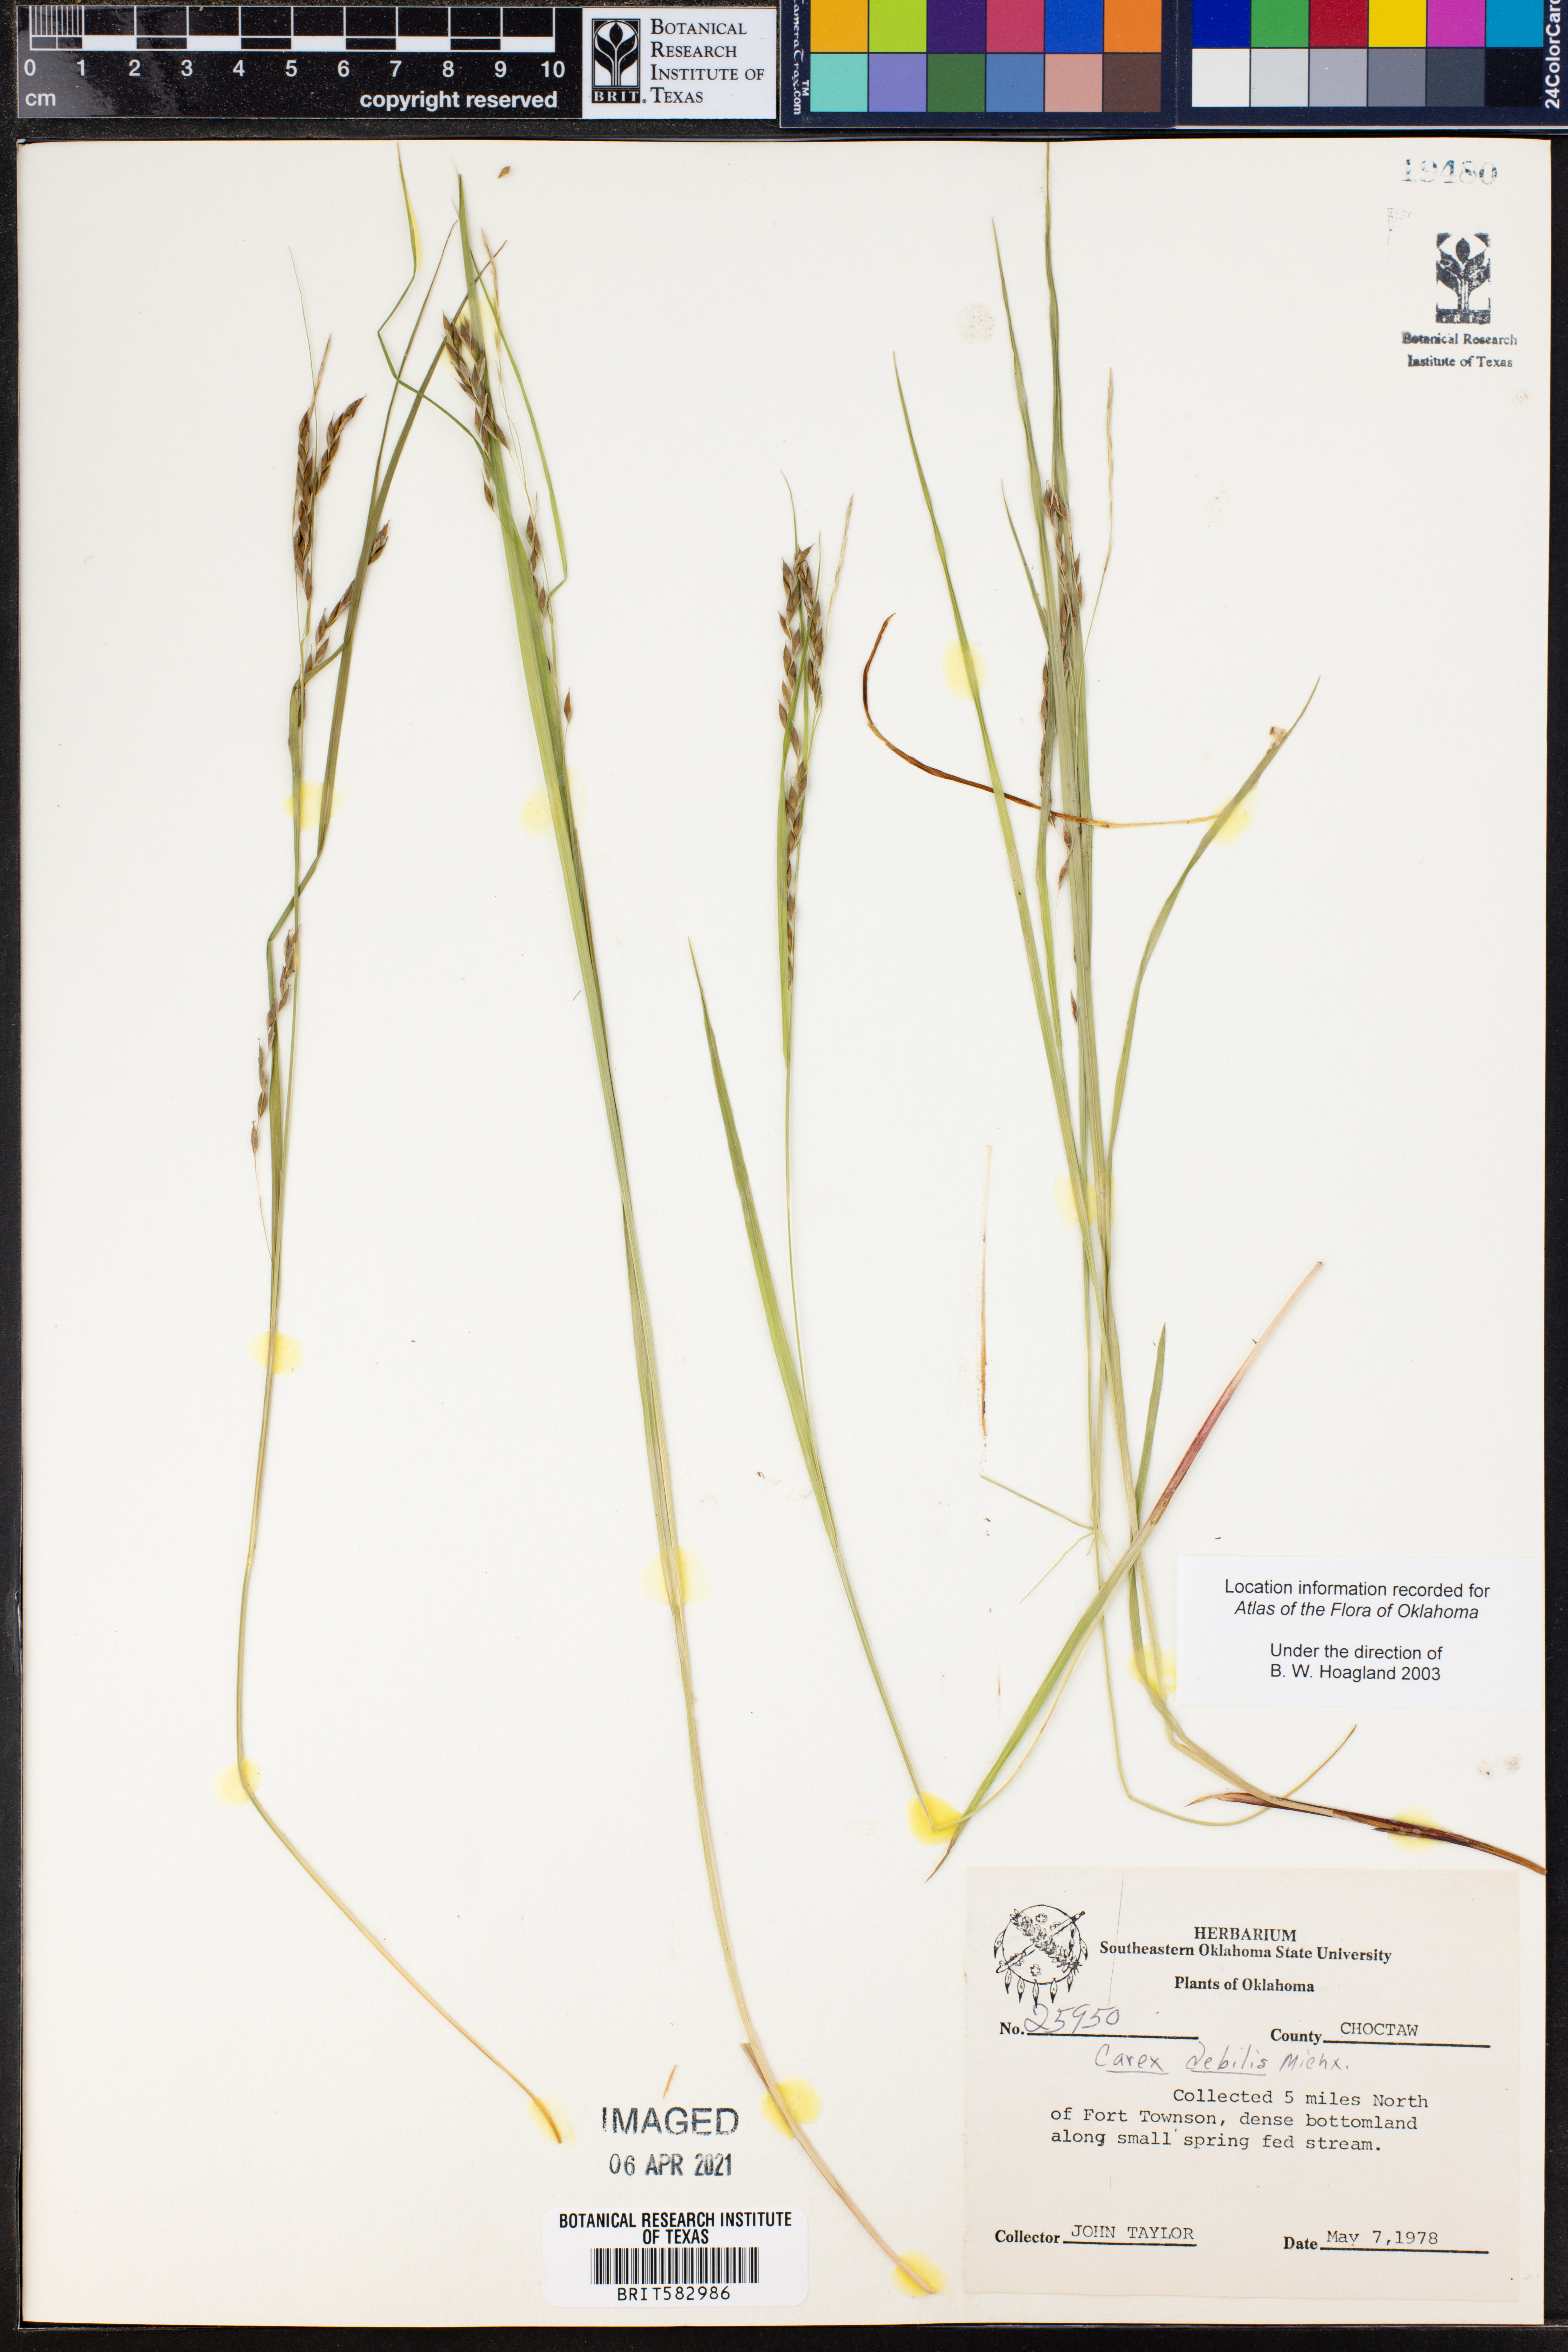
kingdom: Plantae
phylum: Tracheophyta
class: Liliopsida
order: Poales
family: Cyperaceae
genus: Carex
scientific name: Carex debilis
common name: White-edge sedge
